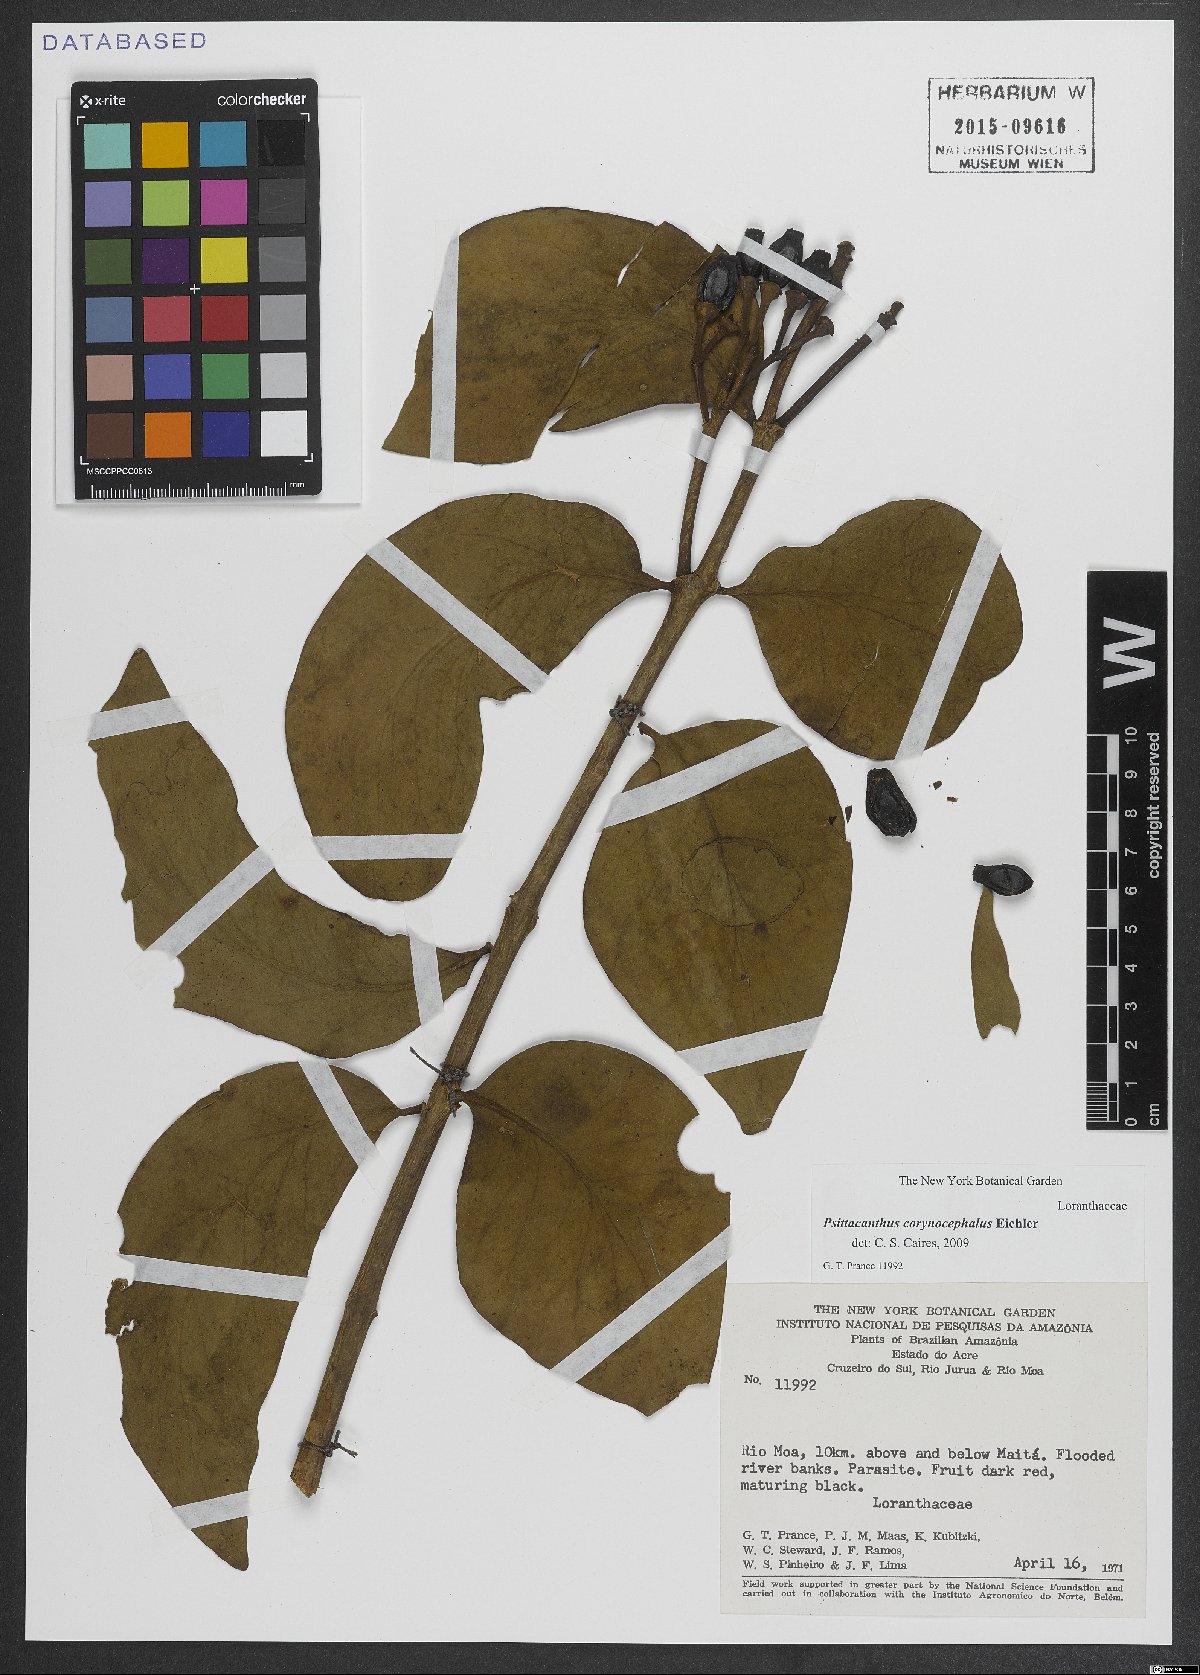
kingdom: Plantae
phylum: Tracheophyta
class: Magnoliopsida
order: Santalales
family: Loranthaceae
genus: Psittacanthus
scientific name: Psittacanthus corynocephalus
